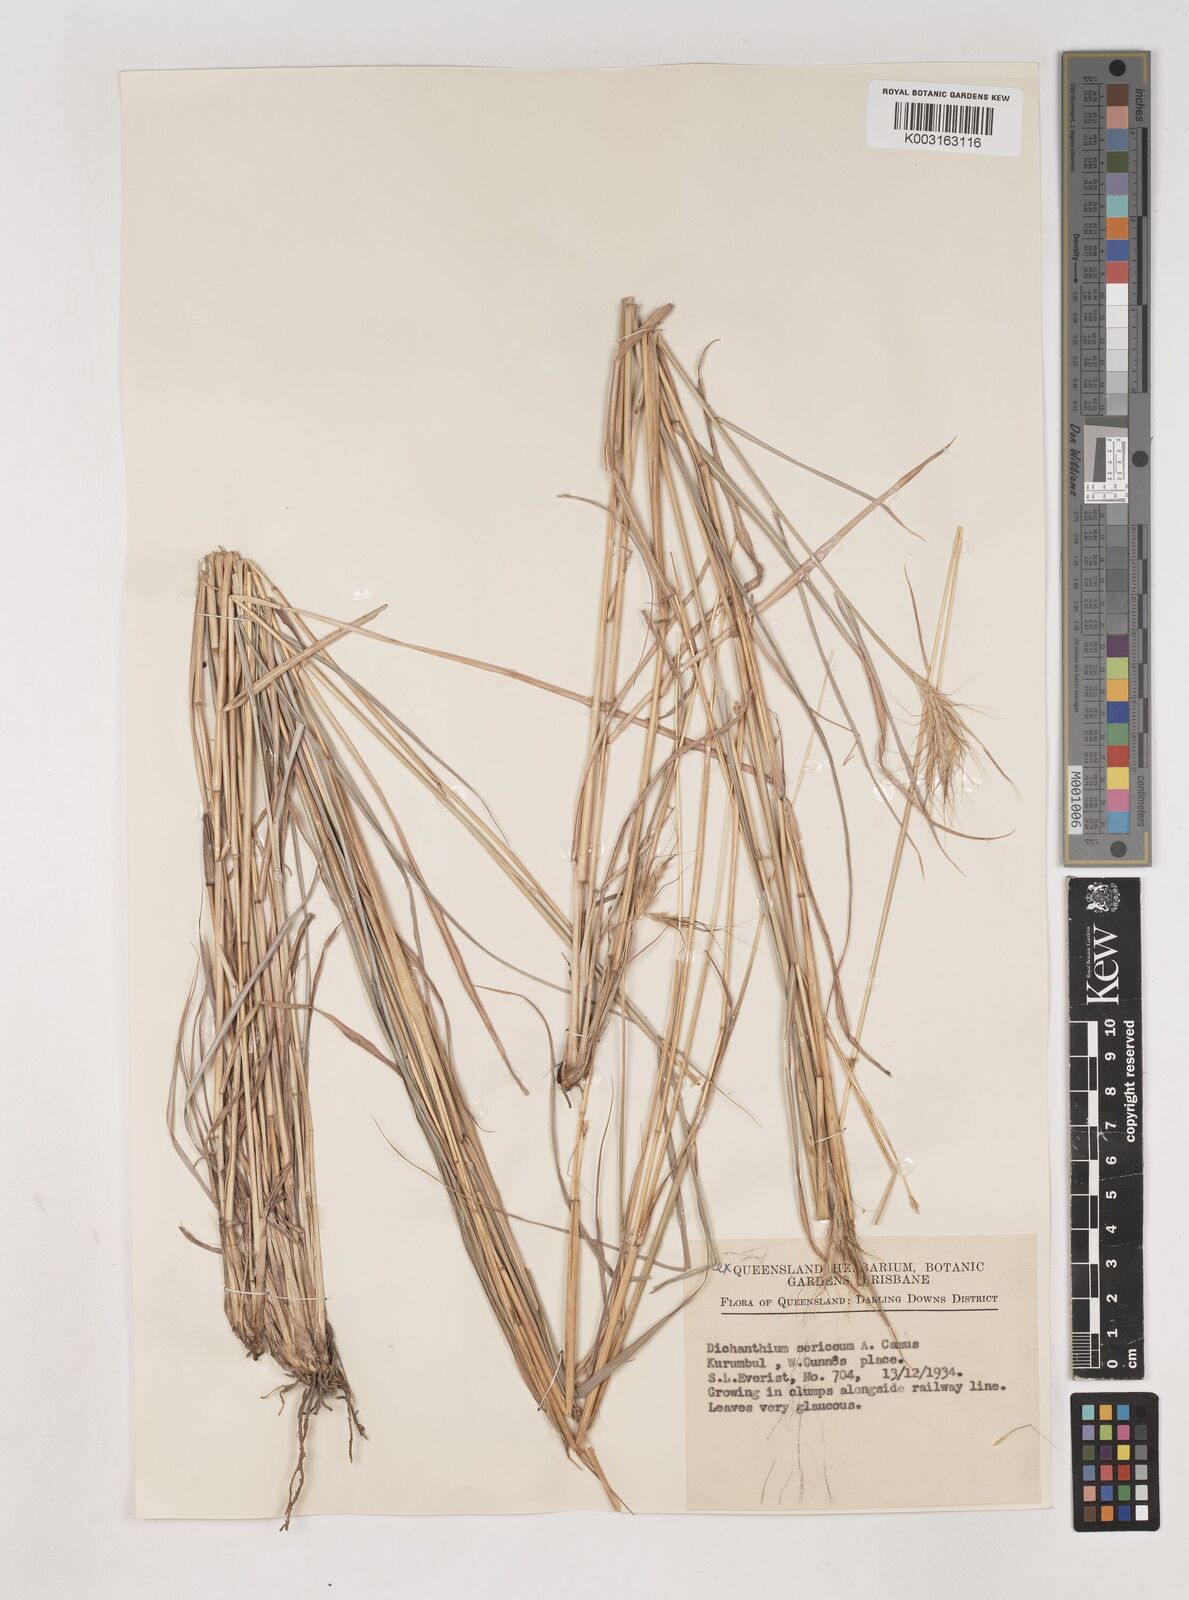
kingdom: Plantae
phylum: Tracheophyta
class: Liliopsida
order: Poales
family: Poaceae
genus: Dichanthium
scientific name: Dichanthium sericeum
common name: Silky bluestem
